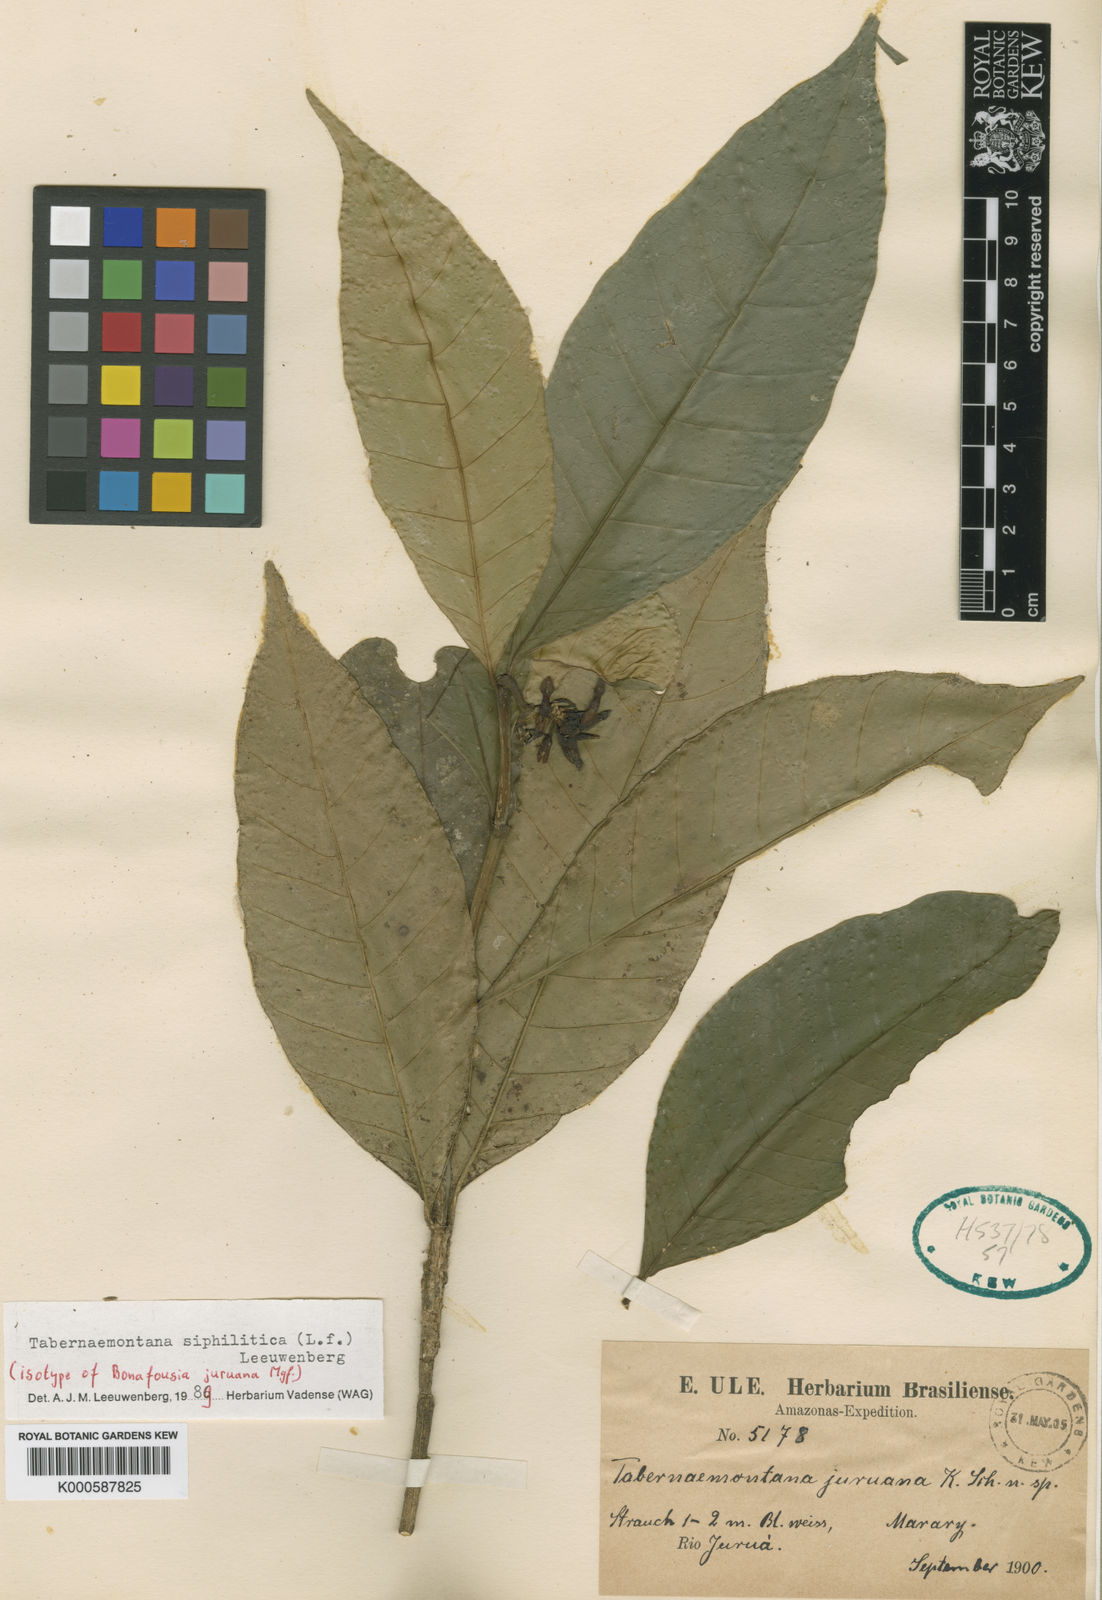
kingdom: Plantae
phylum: Tracheophyta
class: Magnoliopsida
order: Gentianales
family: Apocynaceae
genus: Tabernaemontana
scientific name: Tabernaemontana siphilitica
